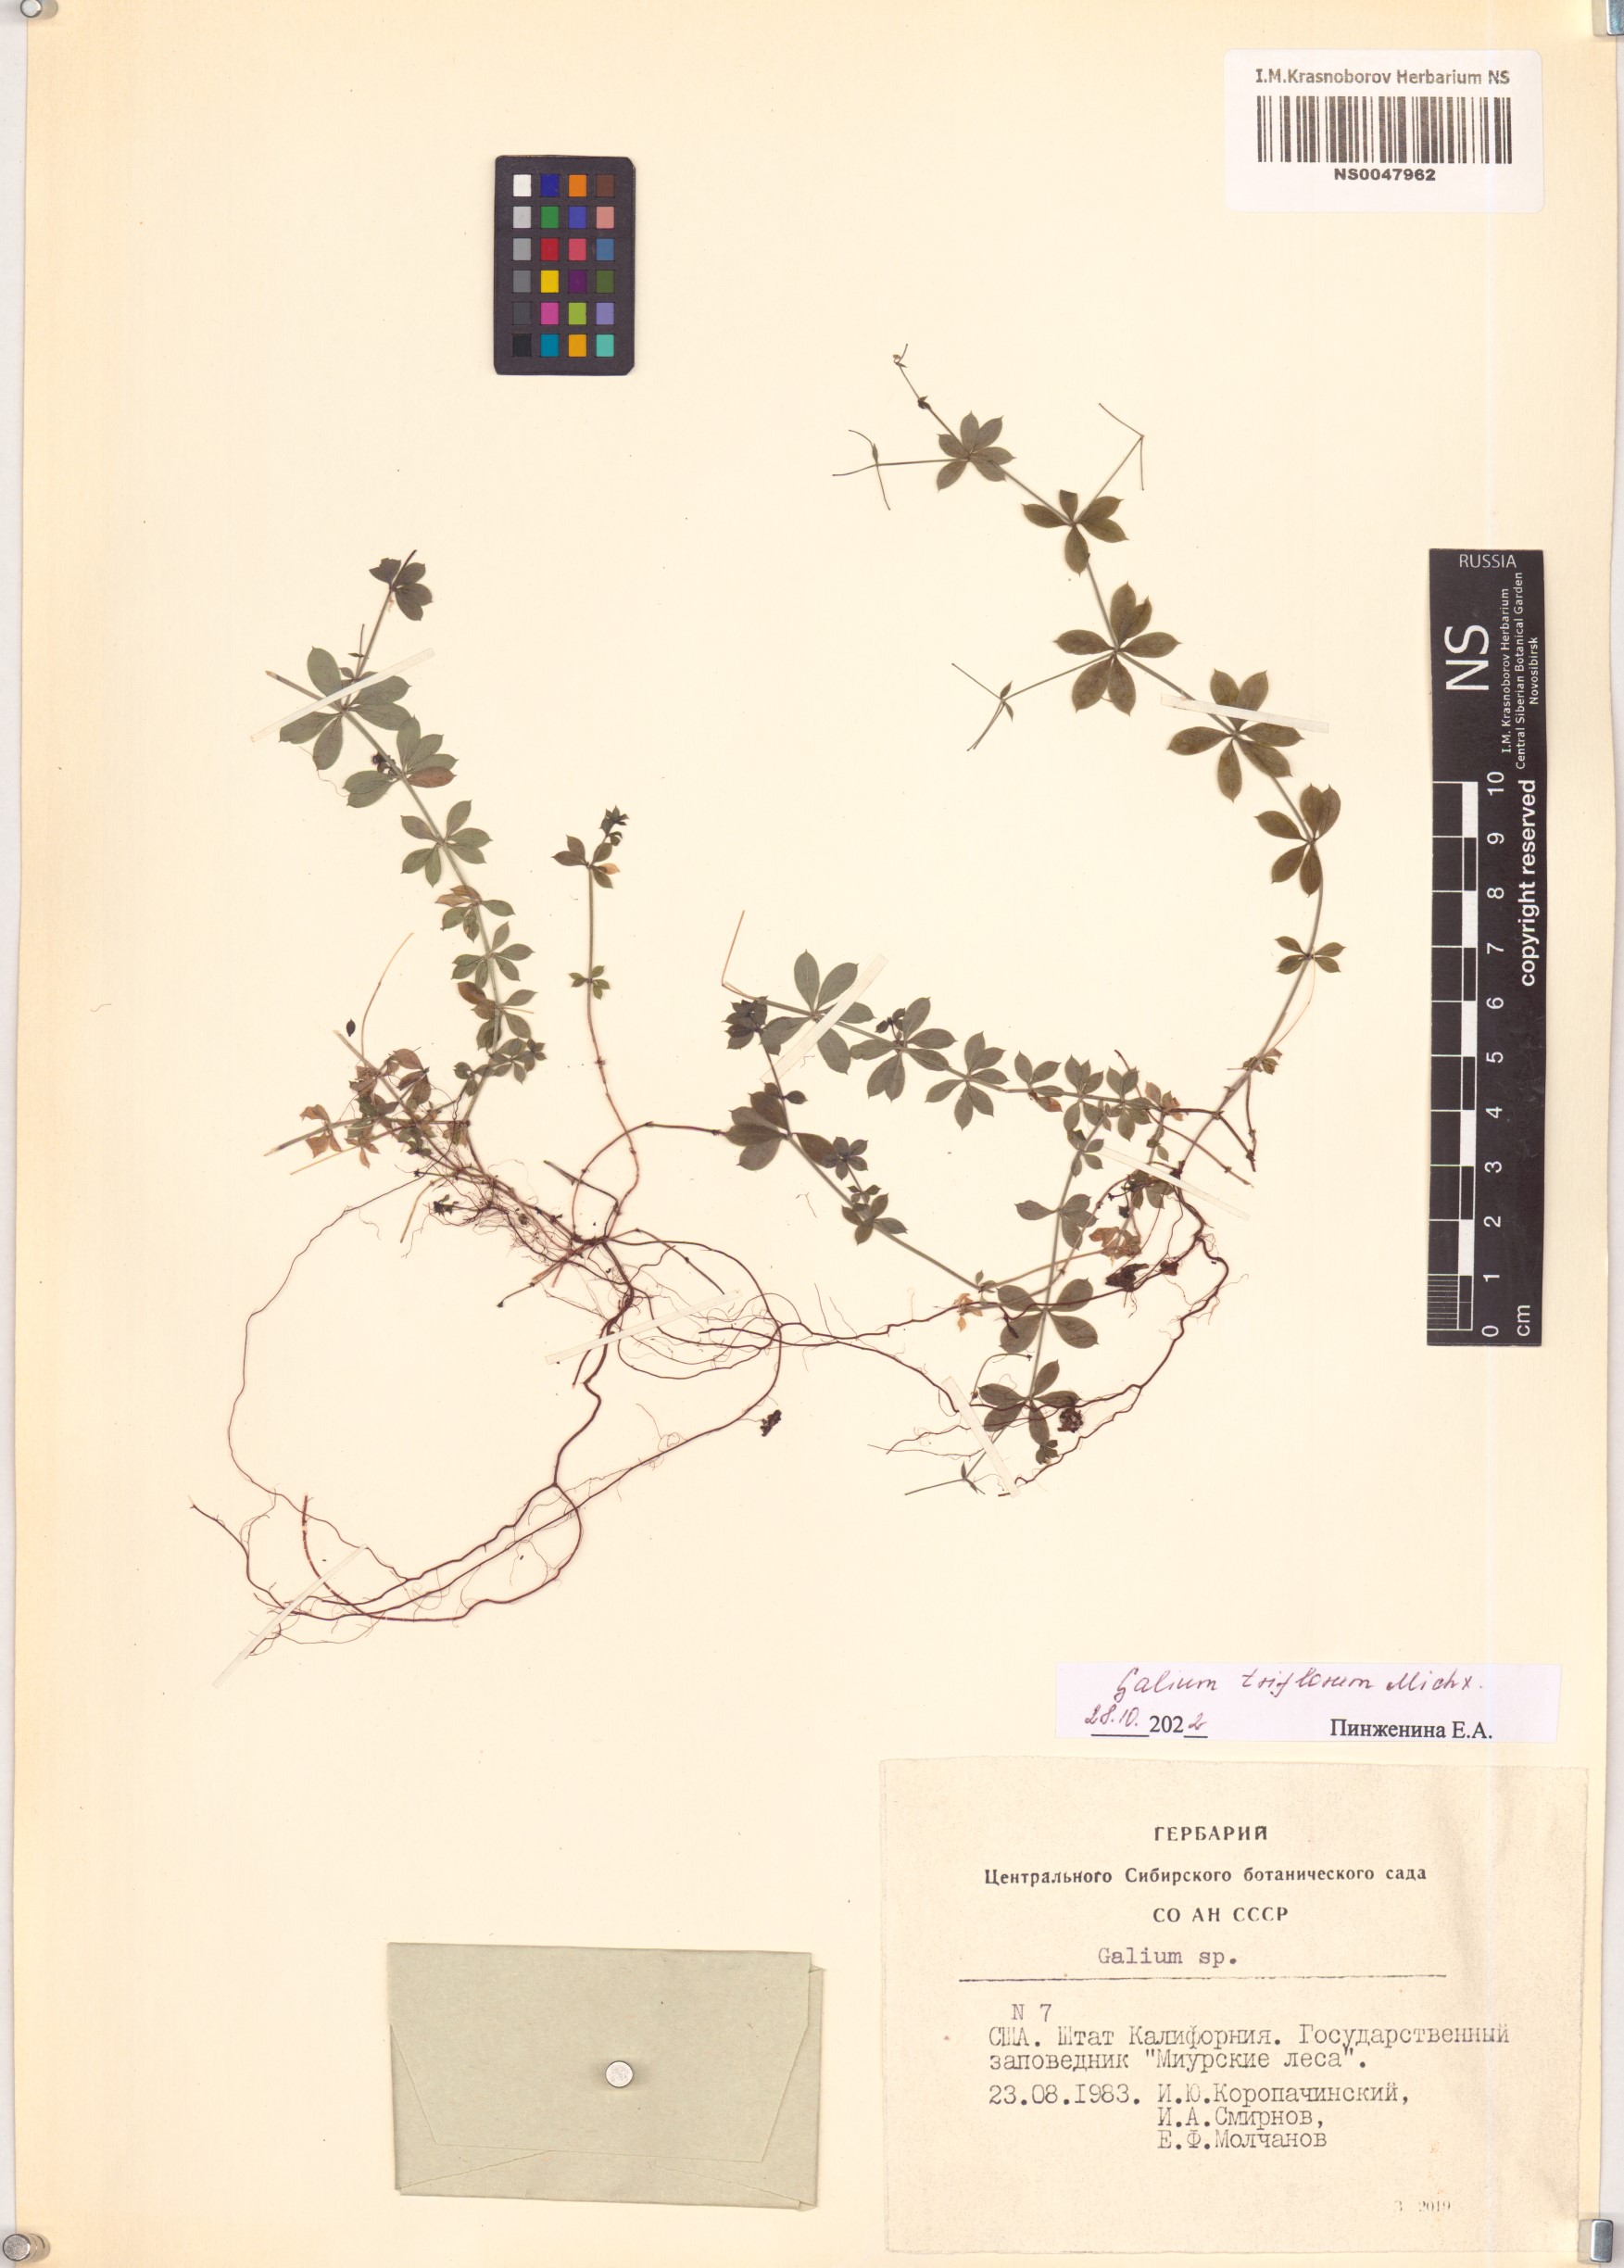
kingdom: Plantae
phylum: Tracheophyta
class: Magnoliopsida
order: Gentianales
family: Rubiaceae
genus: Galium
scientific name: Galium triflorum
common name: Fragrant bedstraw
